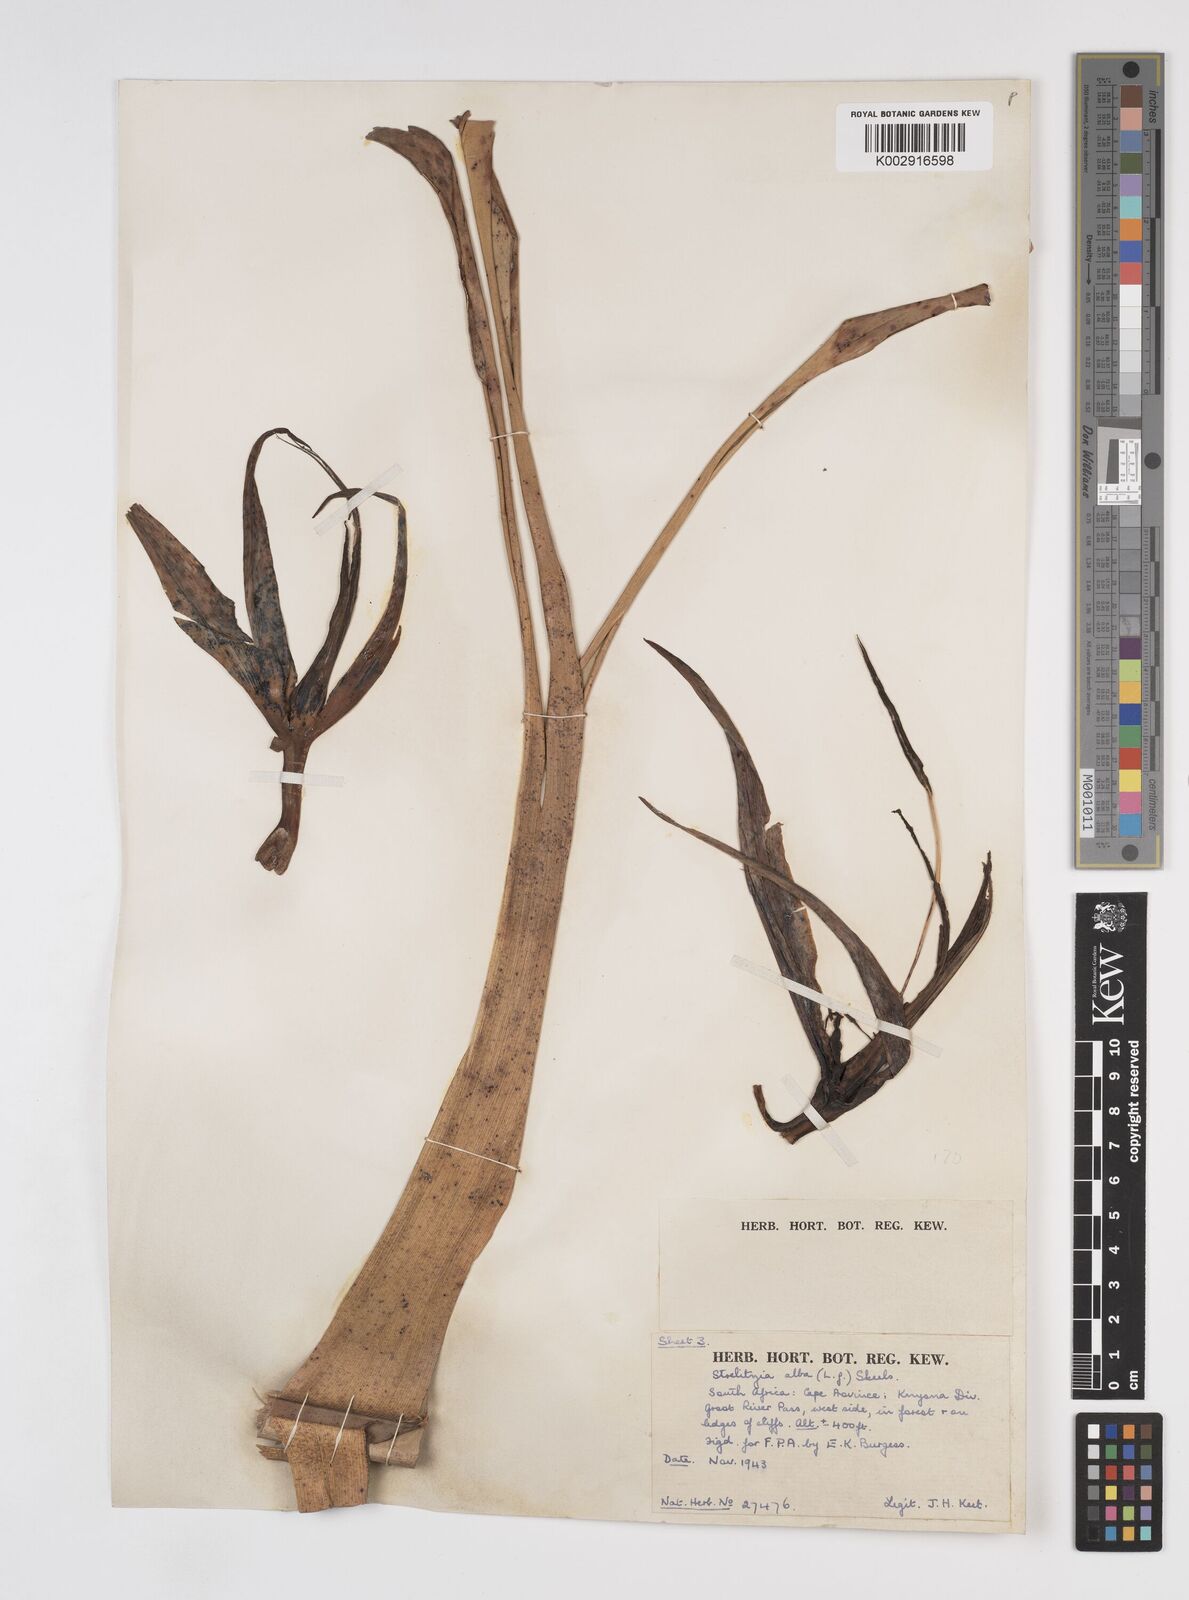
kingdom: Plantae
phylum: Tracheophyta
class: Liliopsida
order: Zingiberales
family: Strelitziaceae
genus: Strelitzia
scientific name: Strelitzia alba
